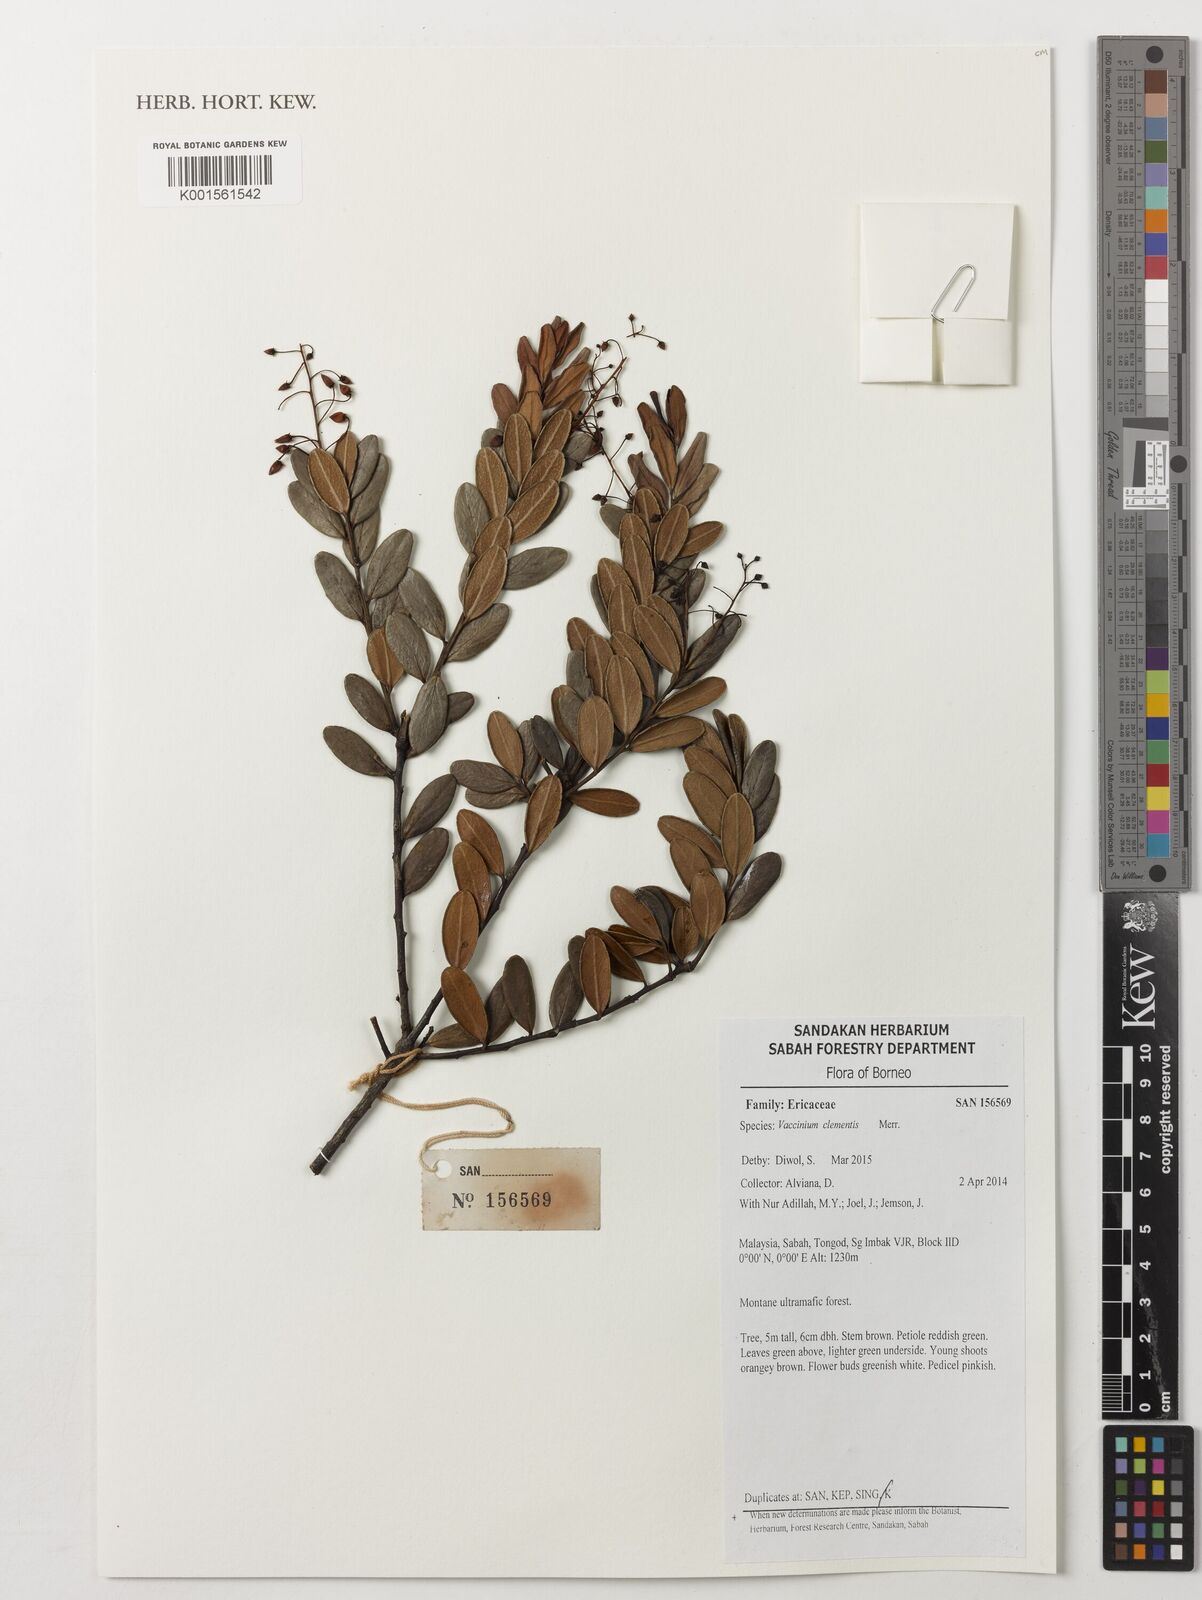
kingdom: Plantae
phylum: Tracheophyta
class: Magnoliopsida
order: Ericales
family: Ericaceae
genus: Vaccinium
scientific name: Vaccinium clementis
